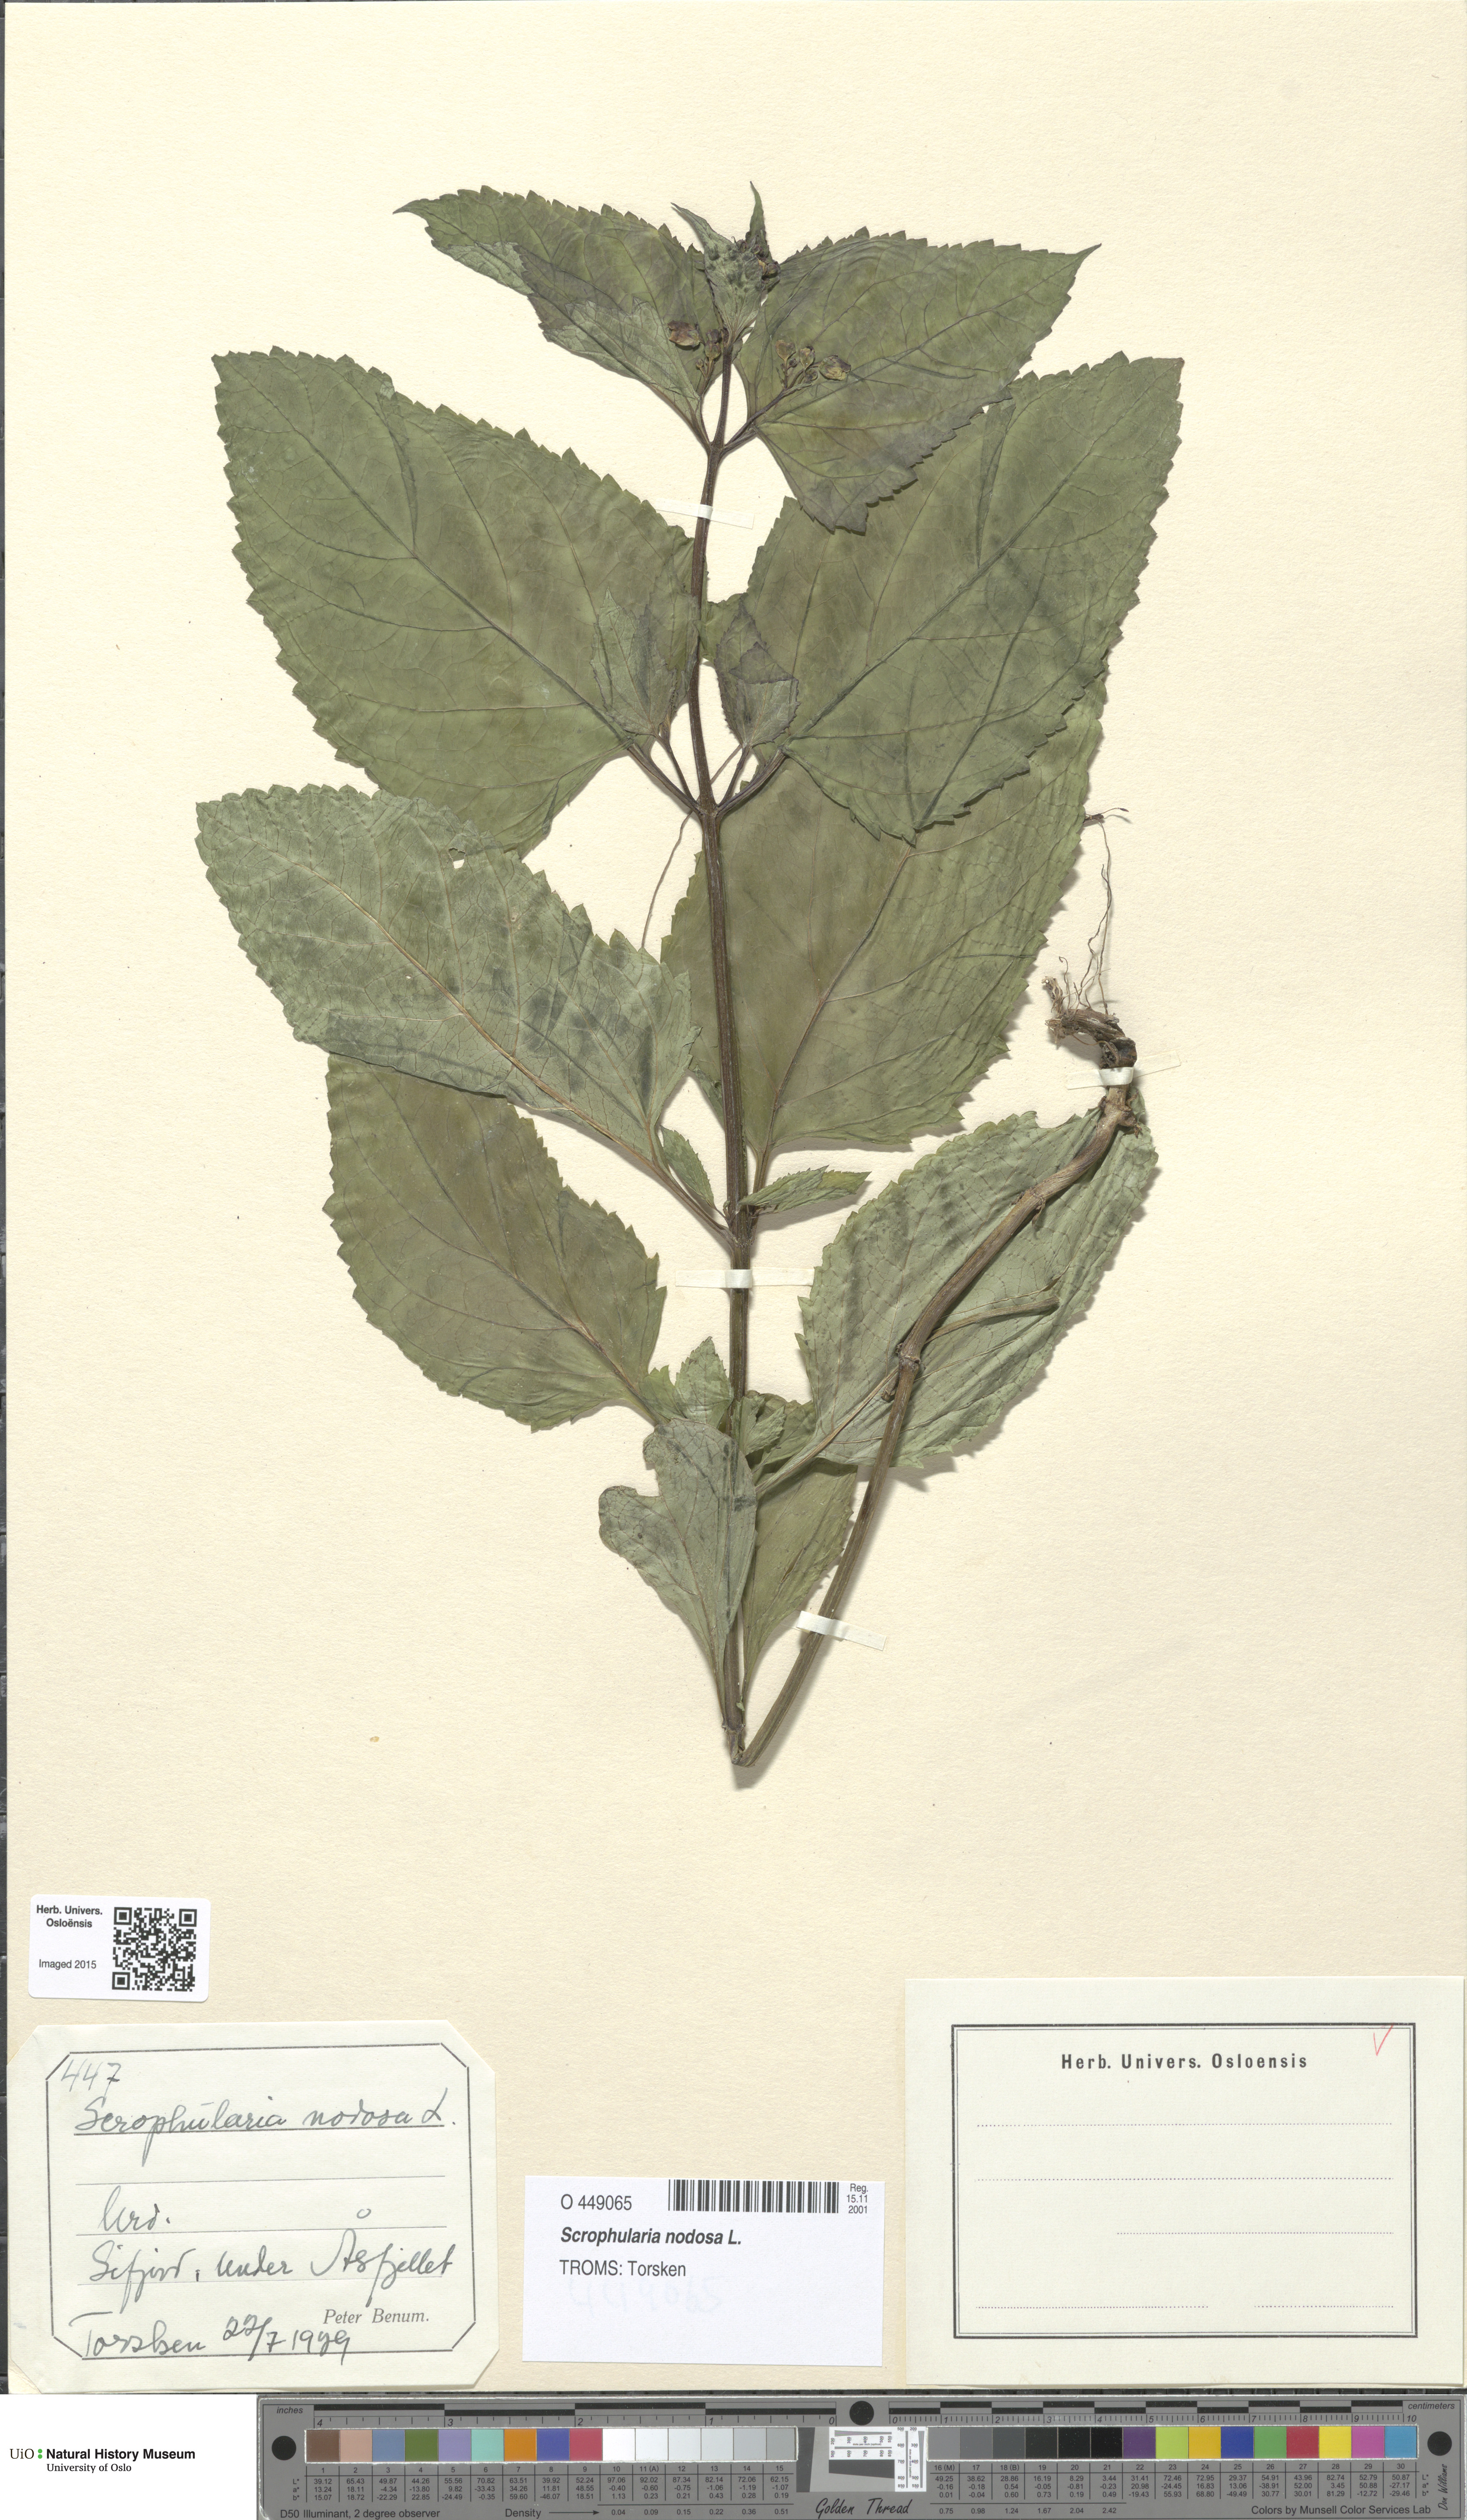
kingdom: Plantae
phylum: Tracheophyta
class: Magnoliopsida
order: Lamiales
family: Scrophulariaceae
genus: Scrophularia
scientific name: Scrophularia nodosa
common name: Common figwort
